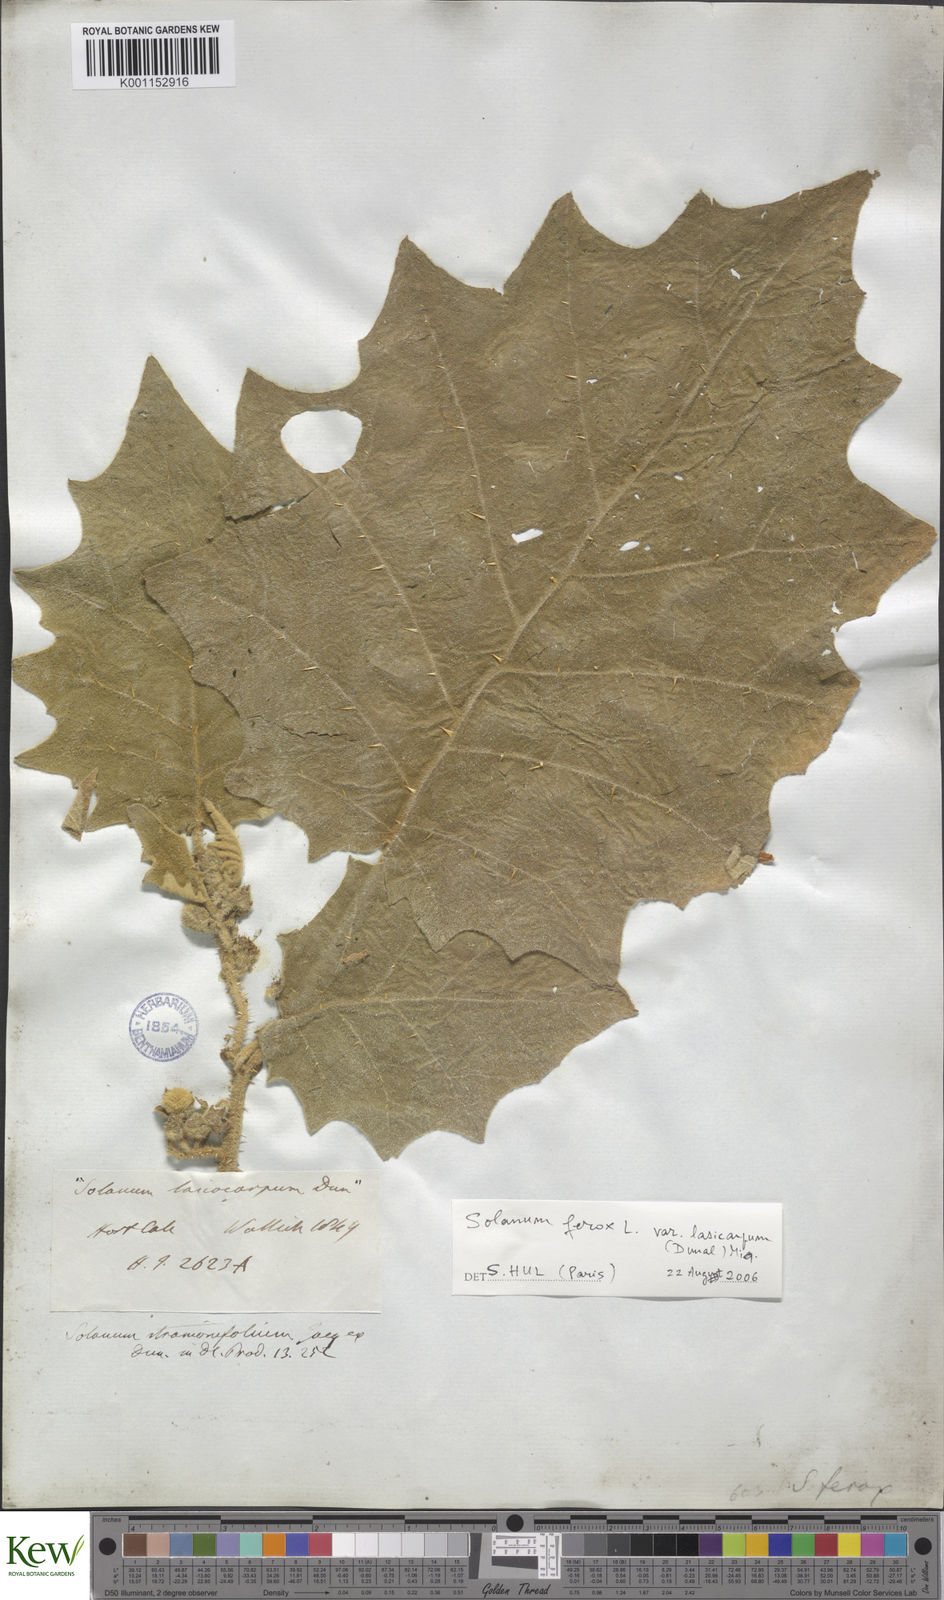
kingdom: Plantae
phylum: Tracheophyta
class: Magnoliopsida
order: Solanales
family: Solanaceae
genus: Solanum
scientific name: Solanum
